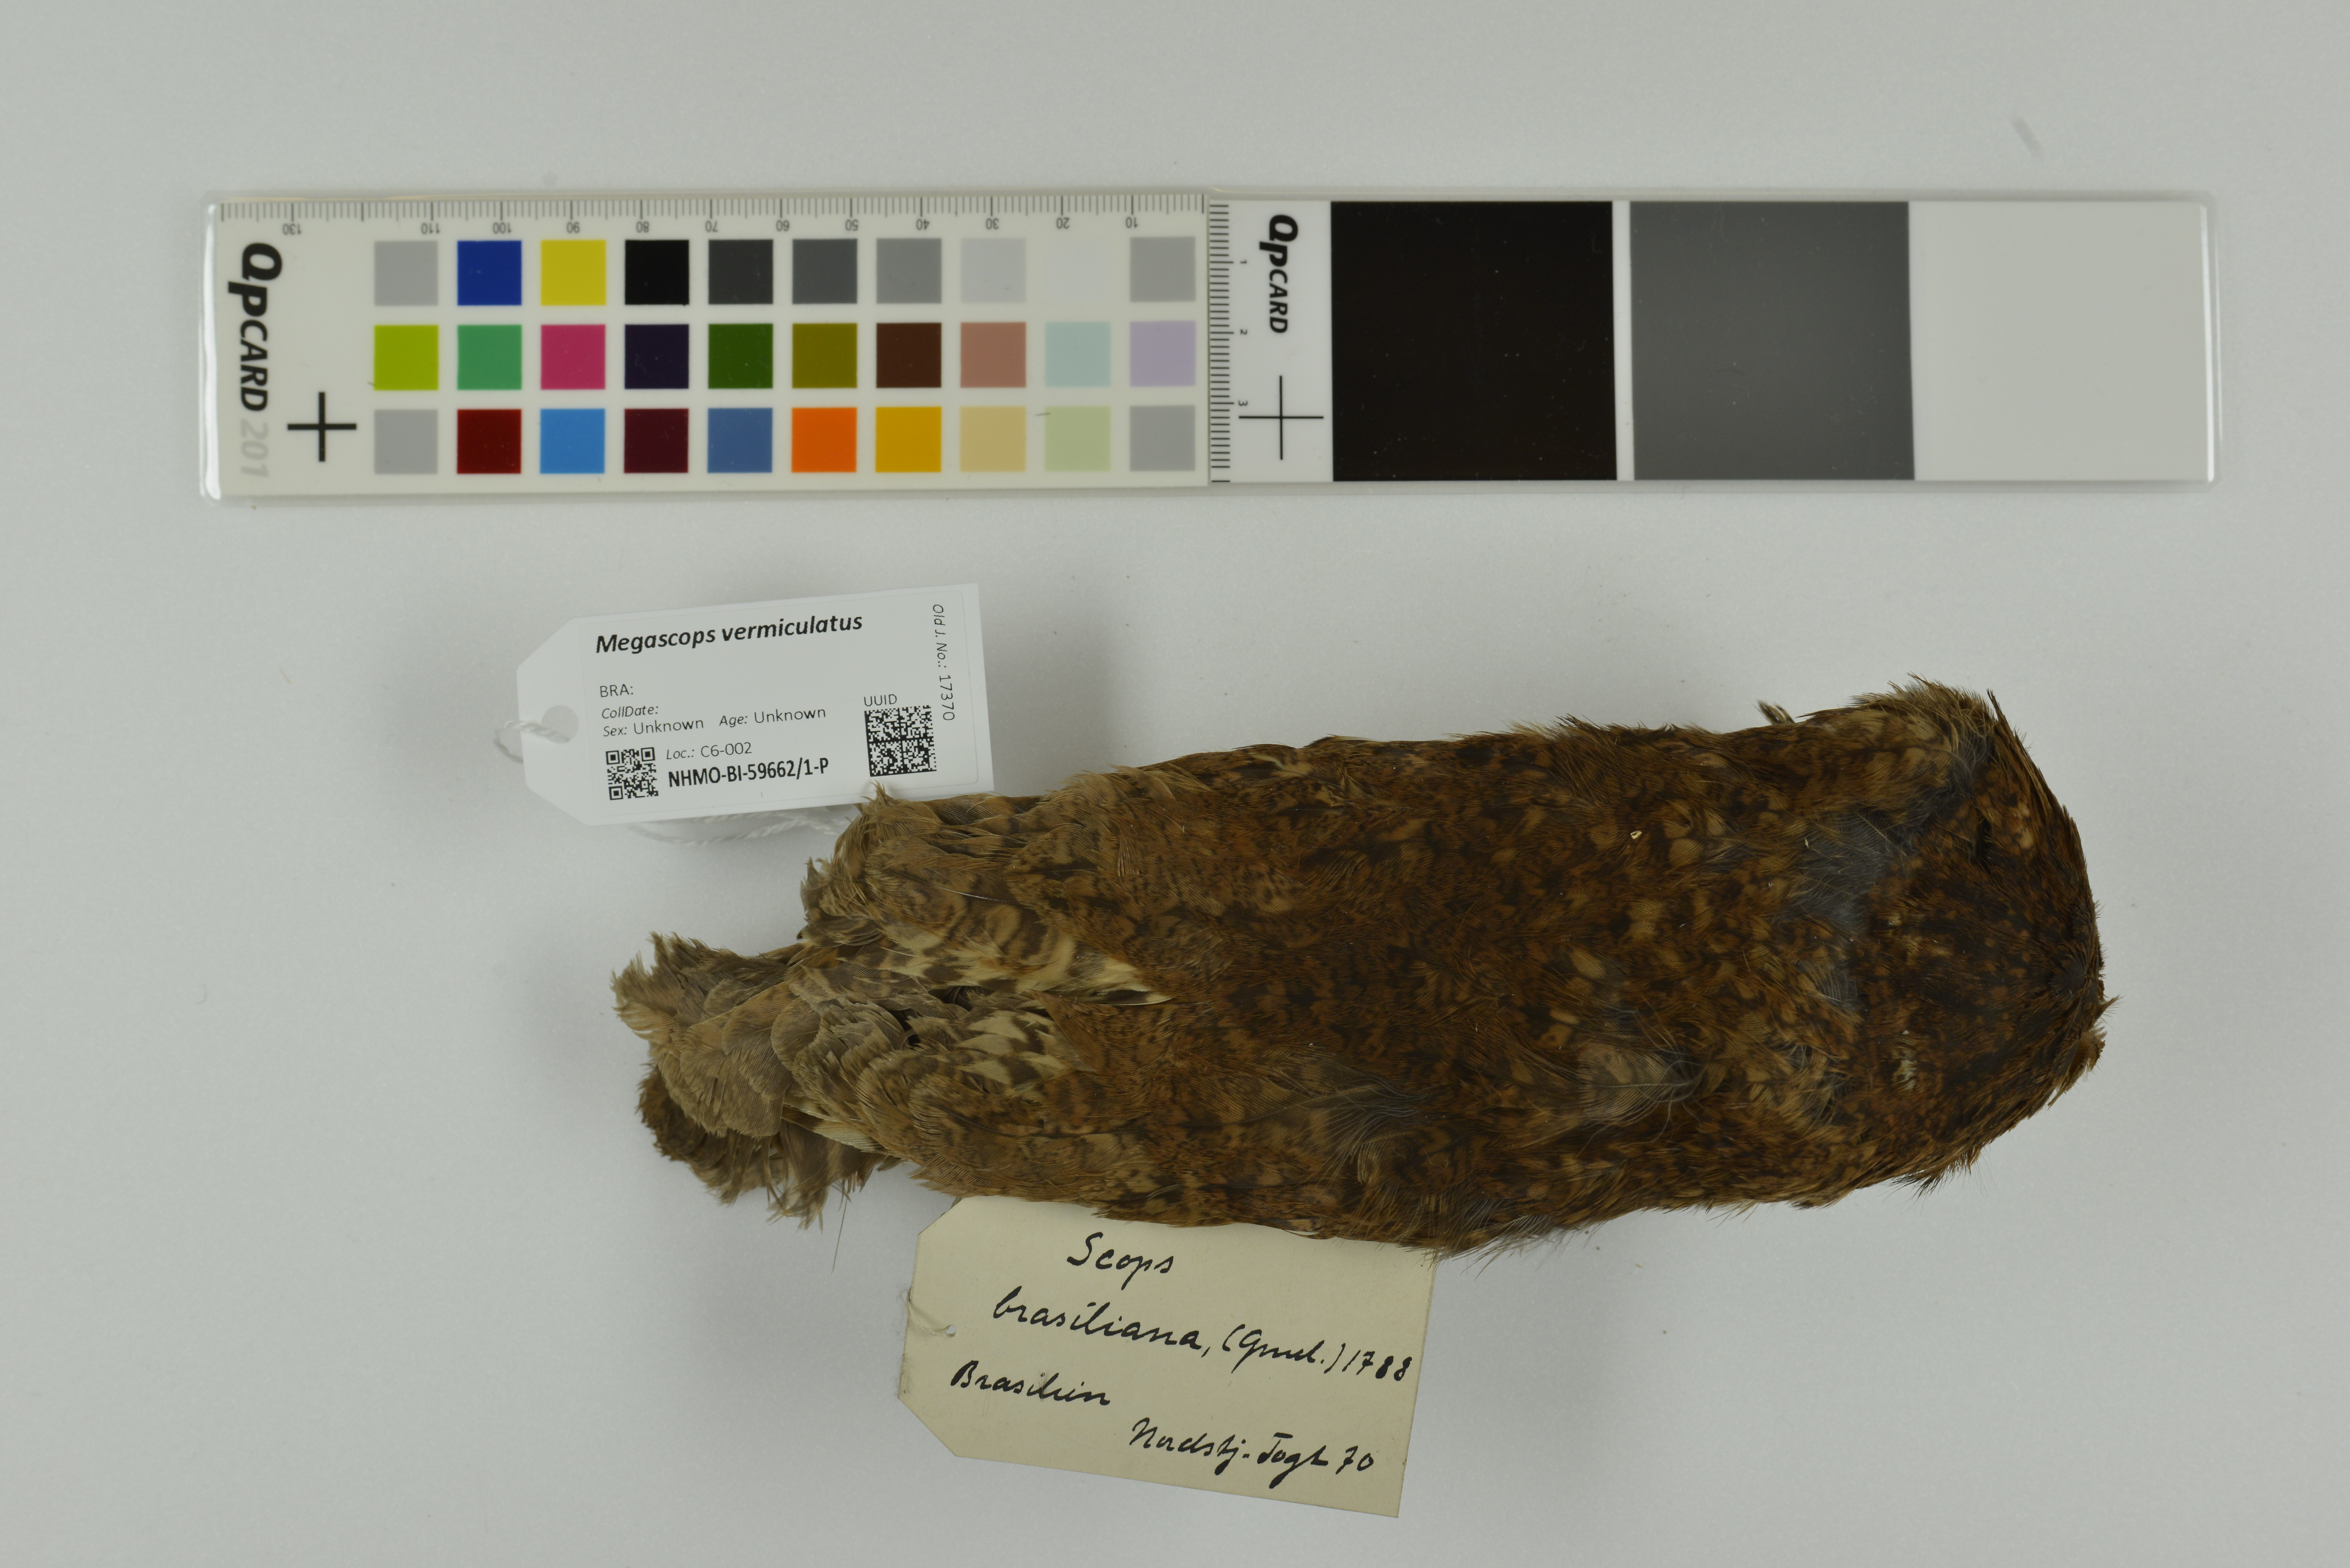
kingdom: Animalia
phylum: Chordata
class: Aves
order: Strigiformes
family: Strigidae
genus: Megascops
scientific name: Megascops vermiculatus
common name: Vermiculated screech owl
